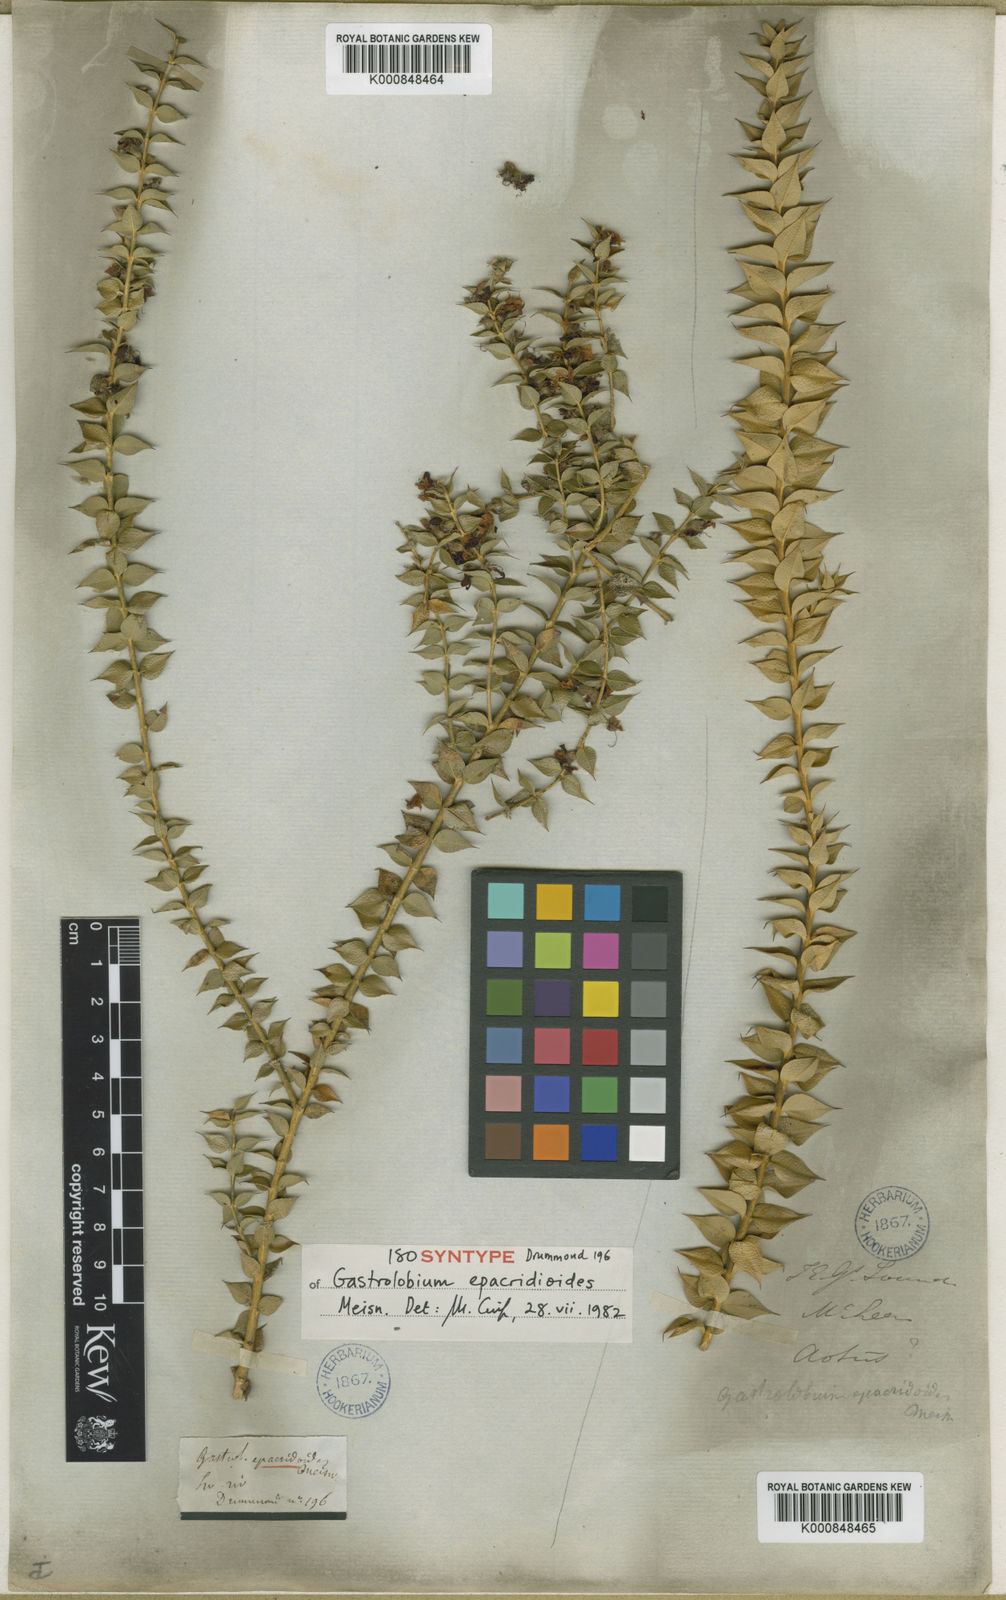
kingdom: Plantae
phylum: Tracheophyta
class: Magnoliopsida
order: Fabales
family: Fabaceae
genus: Gastrolobium
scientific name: Gastrolobium epacridioides
